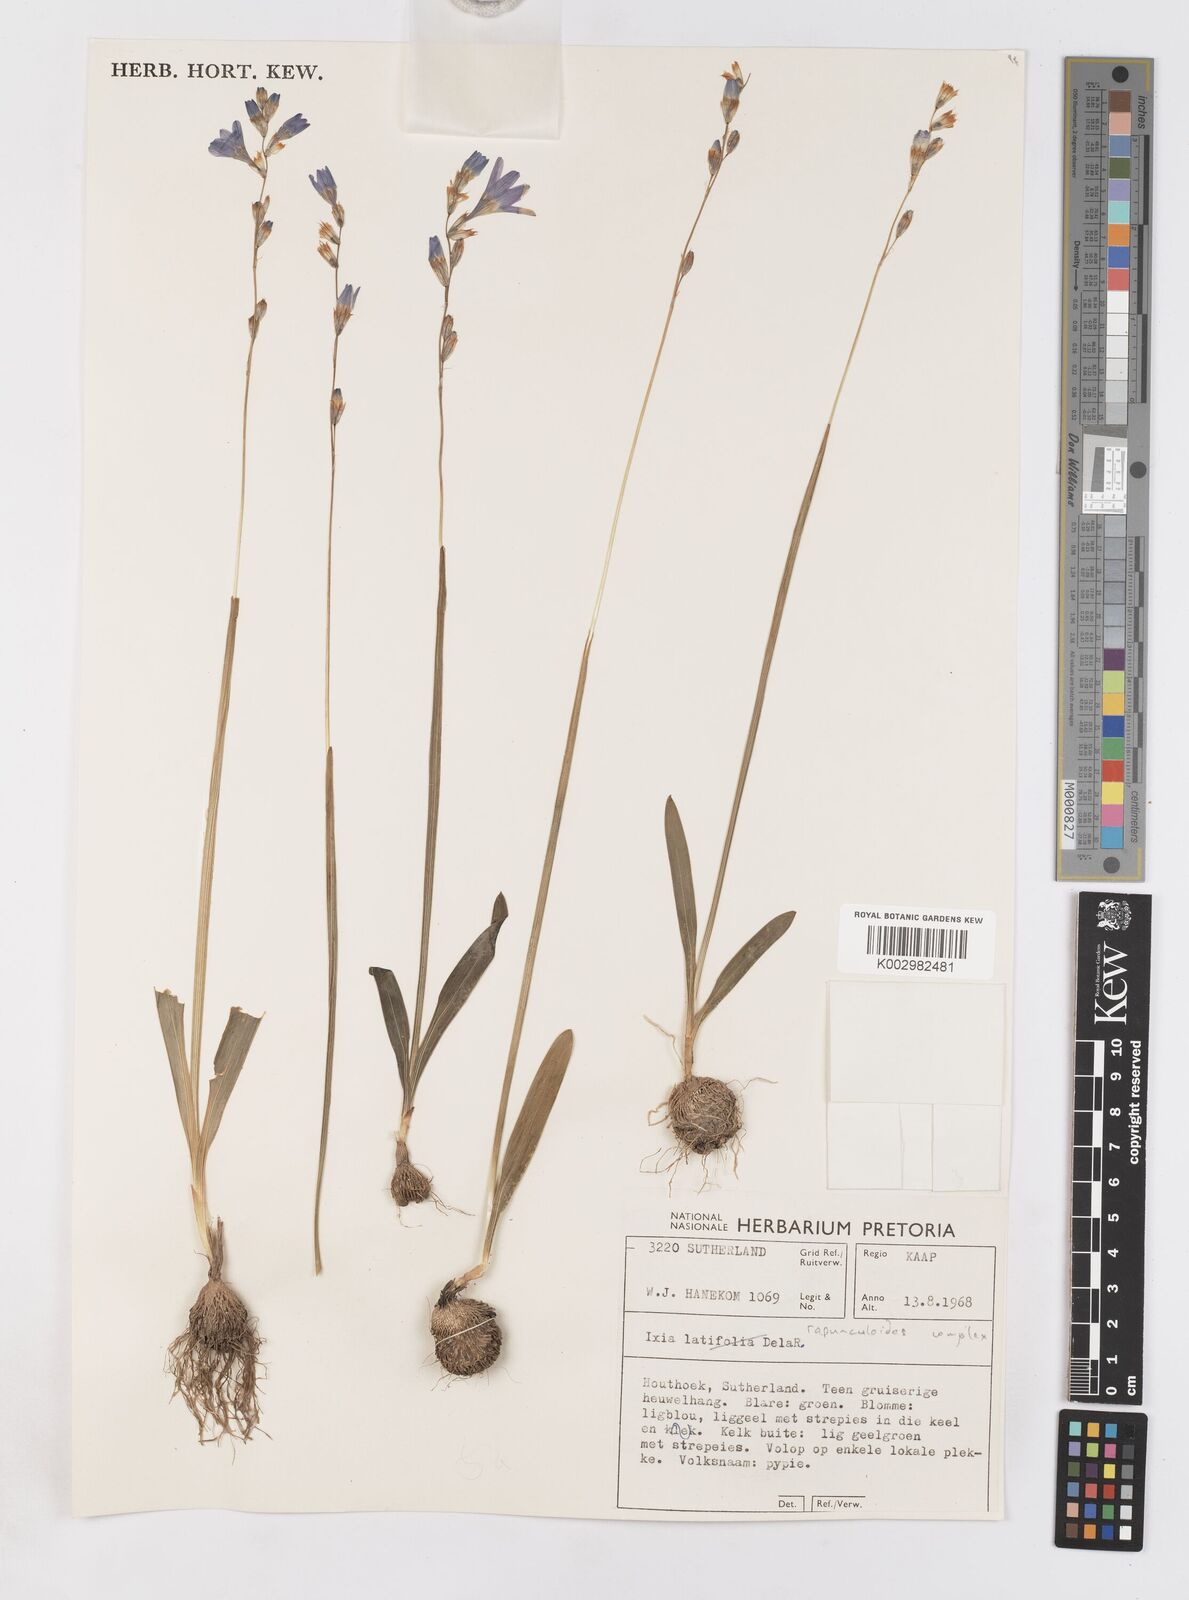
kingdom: Plantae
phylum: Tracheophyta
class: Liliopsida
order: Asparagales
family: Iridaceae
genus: Ixia
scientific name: Ixia rapunculoides
